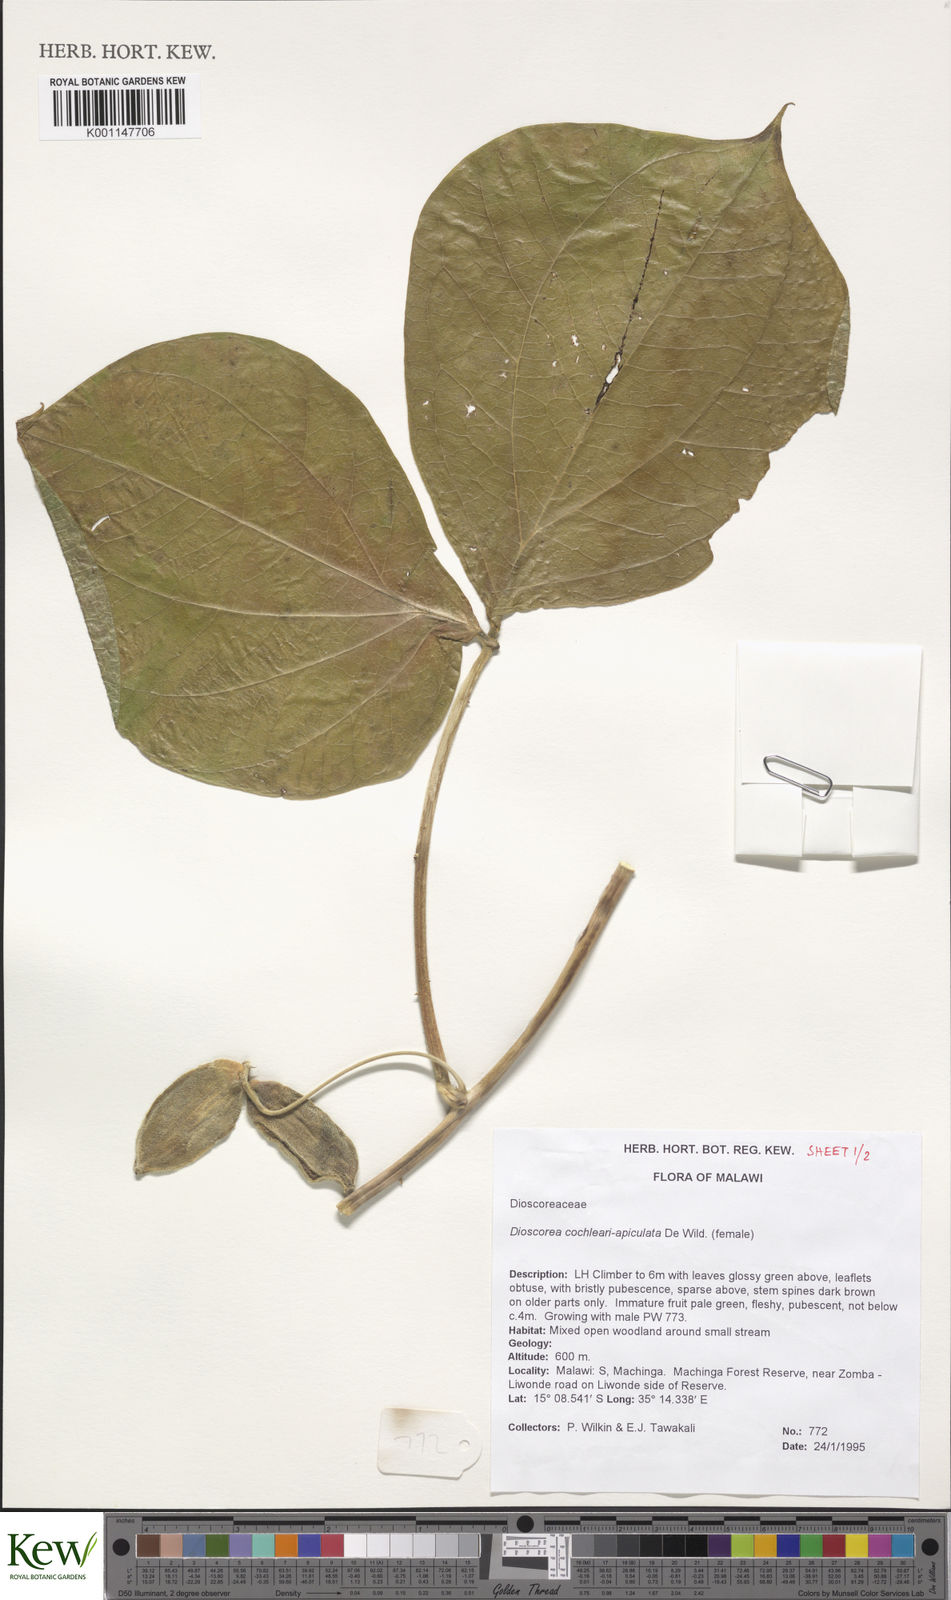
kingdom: Plantae
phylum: Tracheophyta
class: Liliopsida
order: Dioscoreales
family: Dioscoreaceae
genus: Dioscorea
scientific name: Dioscorea cochleariapiculata
